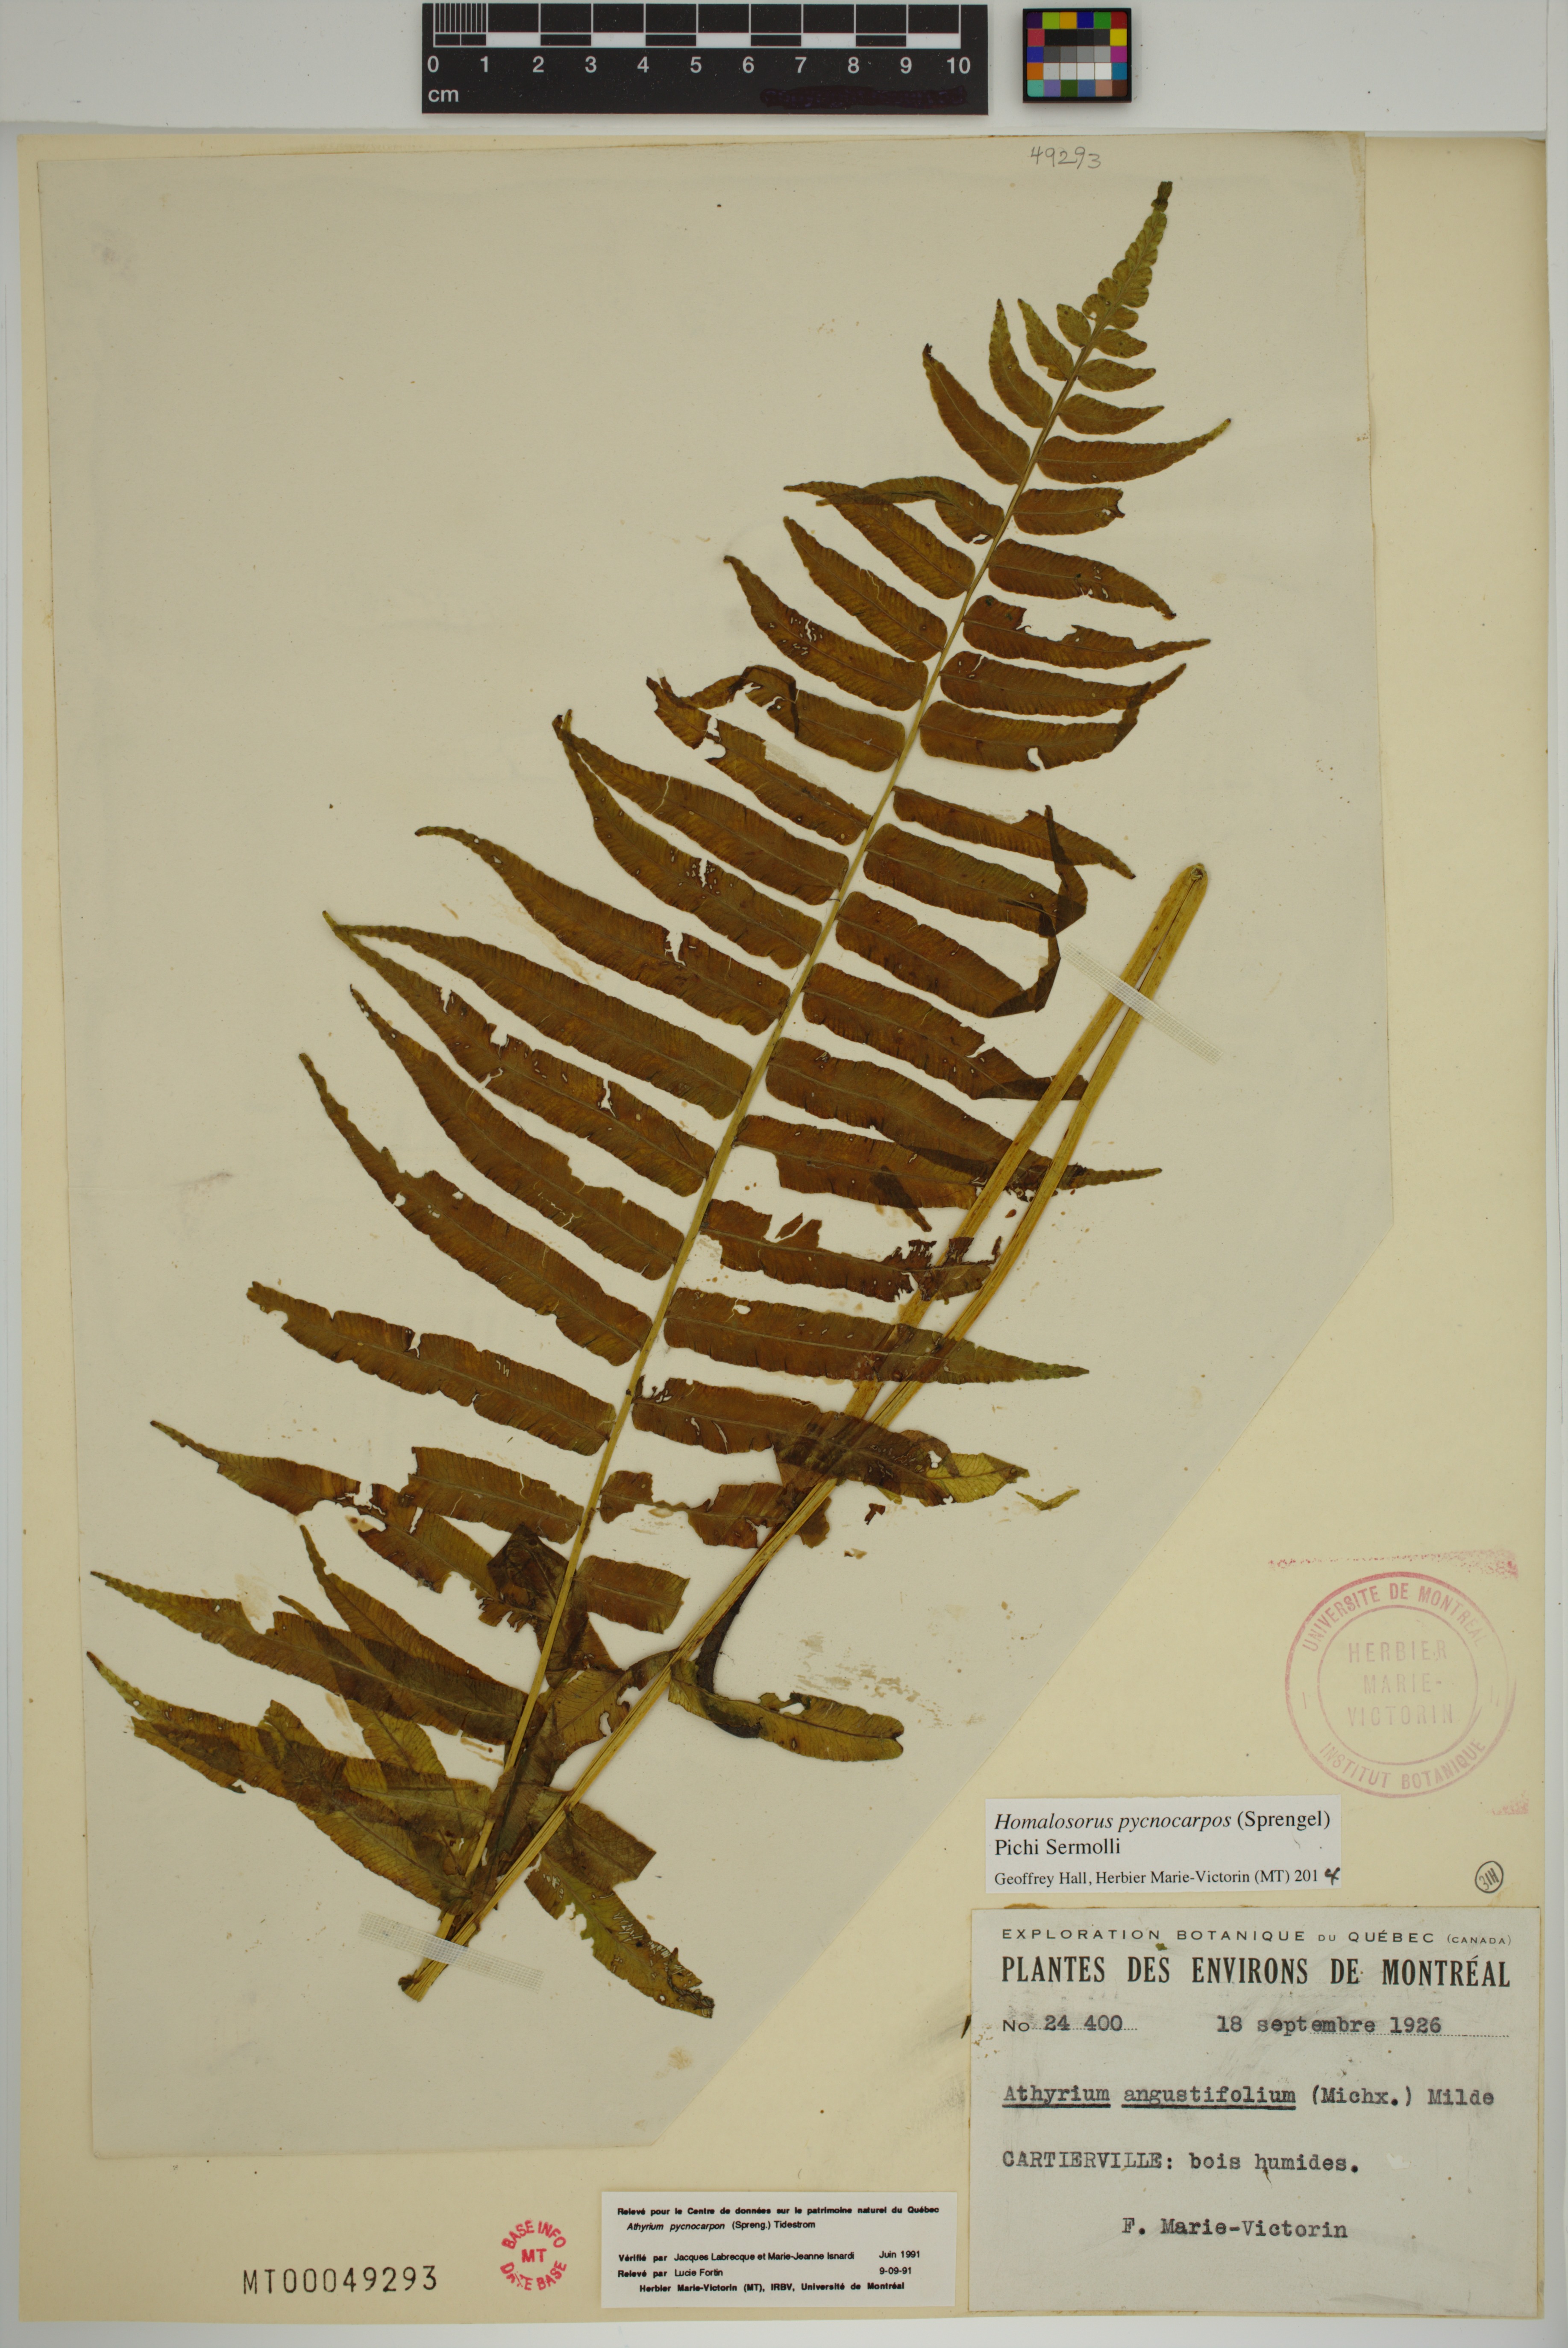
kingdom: Plantae
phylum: Tracheophyta
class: Polypodiopsida
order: Polypodiales
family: Diplaziopsidaceae
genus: Homalosorus
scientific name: Homalosorus pycnocarpos
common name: Glade fern
